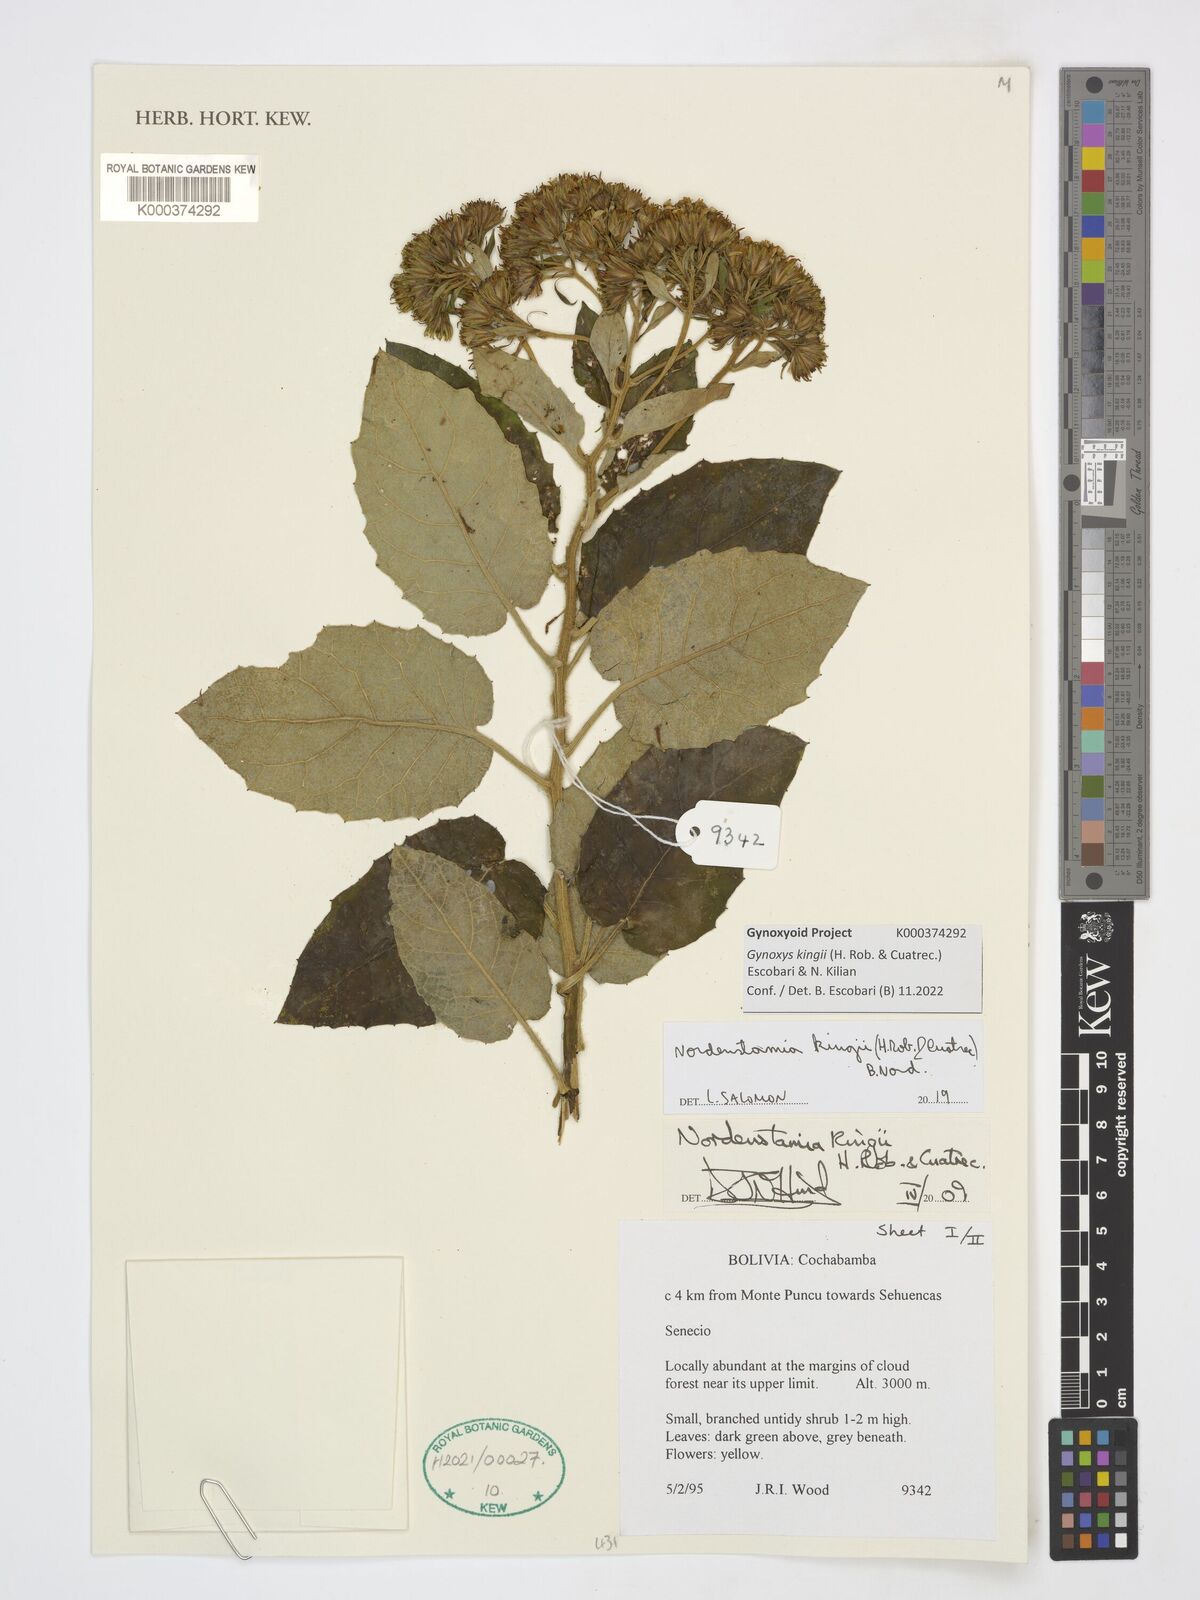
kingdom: Plantae
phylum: Tracheophyta
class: Magnoliopsida
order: Asterales
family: Asteraceae
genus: Gynoxys
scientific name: Gynoxys
